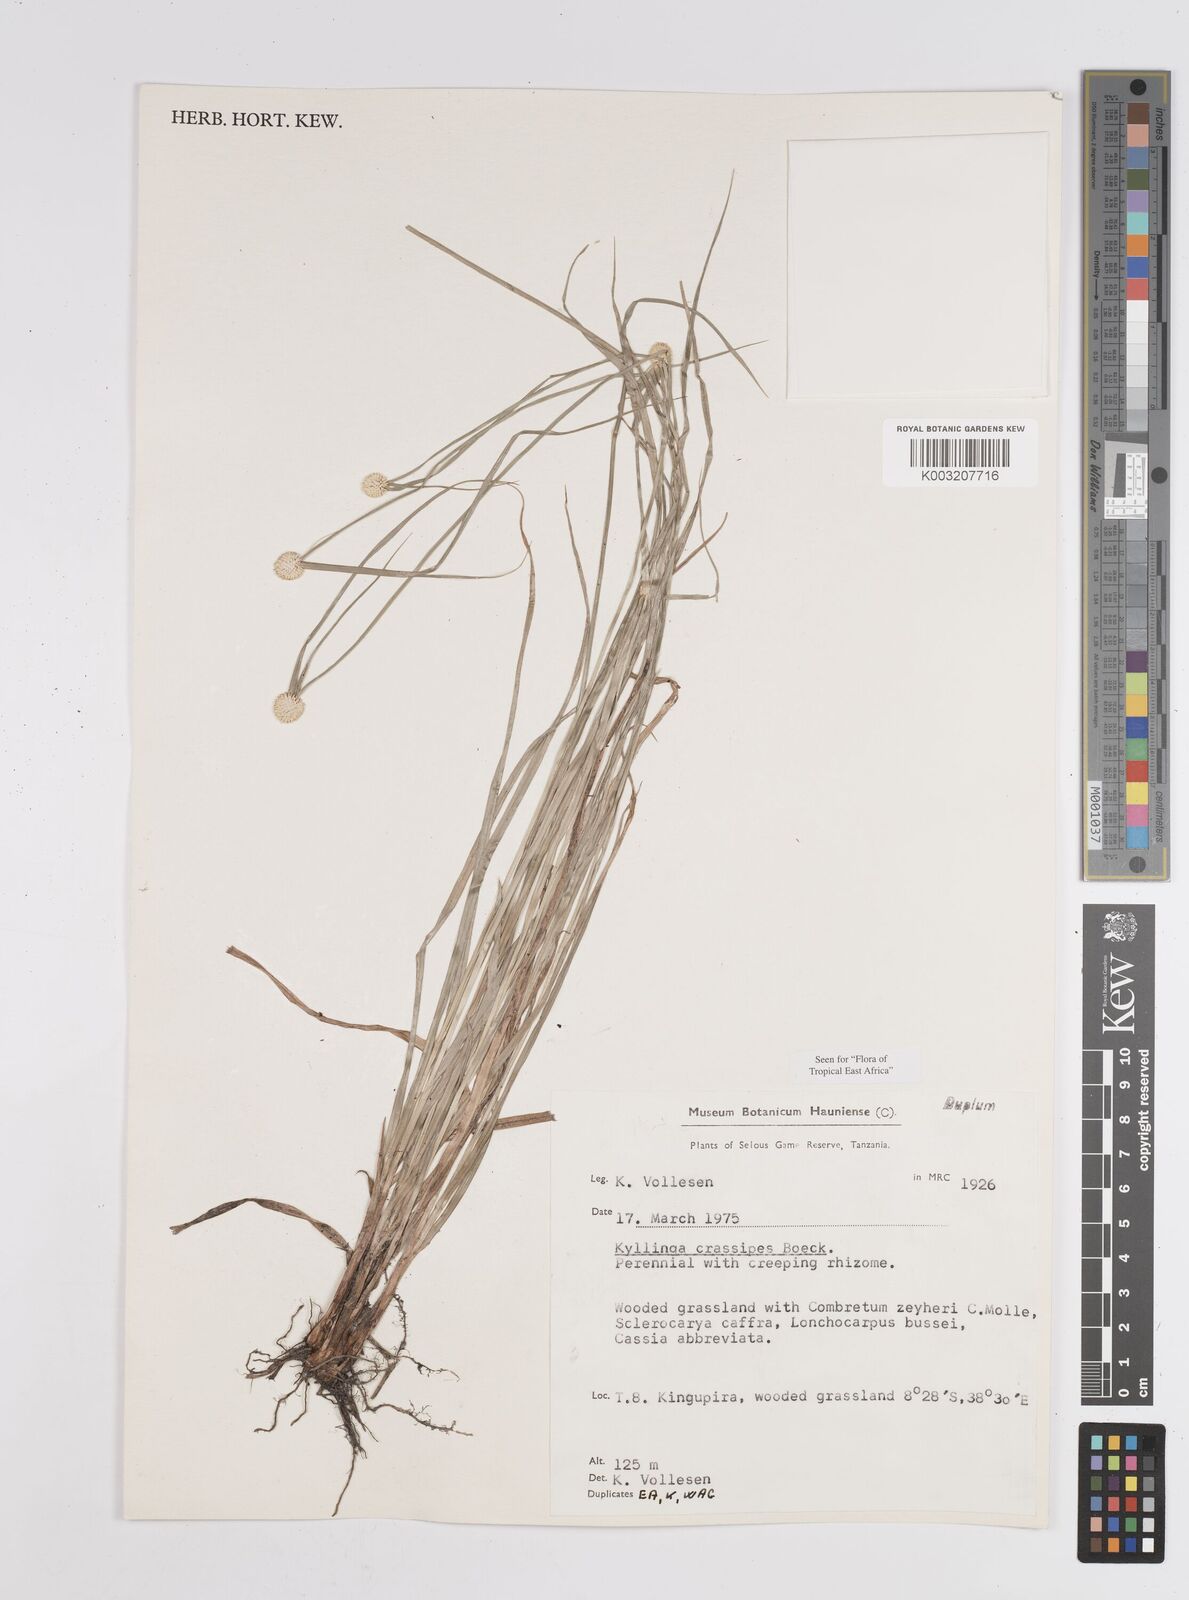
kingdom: Plantae
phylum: Tracheophyta
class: Liliopsida
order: Poales
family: Cyperaceae
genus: Cyperus
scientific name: Cyperus
